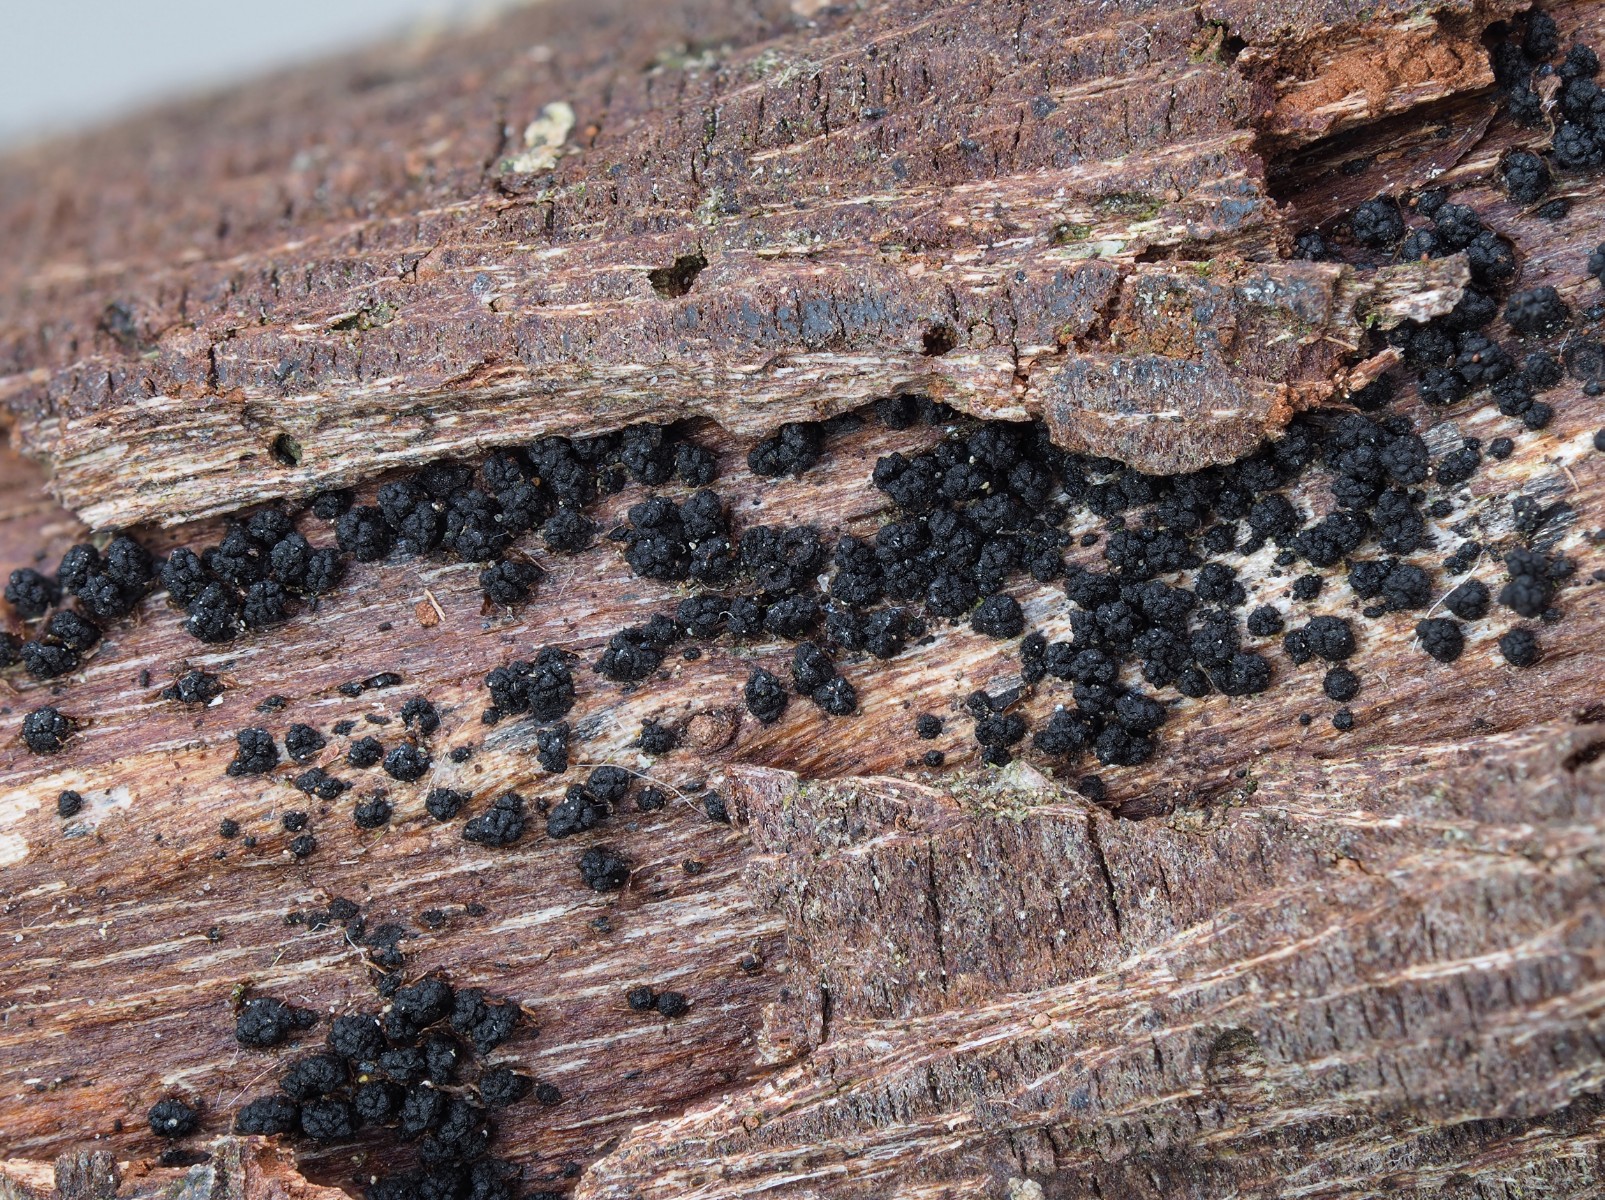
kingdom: Fungi
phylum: Ascomycota
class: Sordariomycetes
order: Coronophorales
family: Bertiaceae
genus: Bertia
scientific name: Bertia moriformis
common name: almindelig morbærkerne
